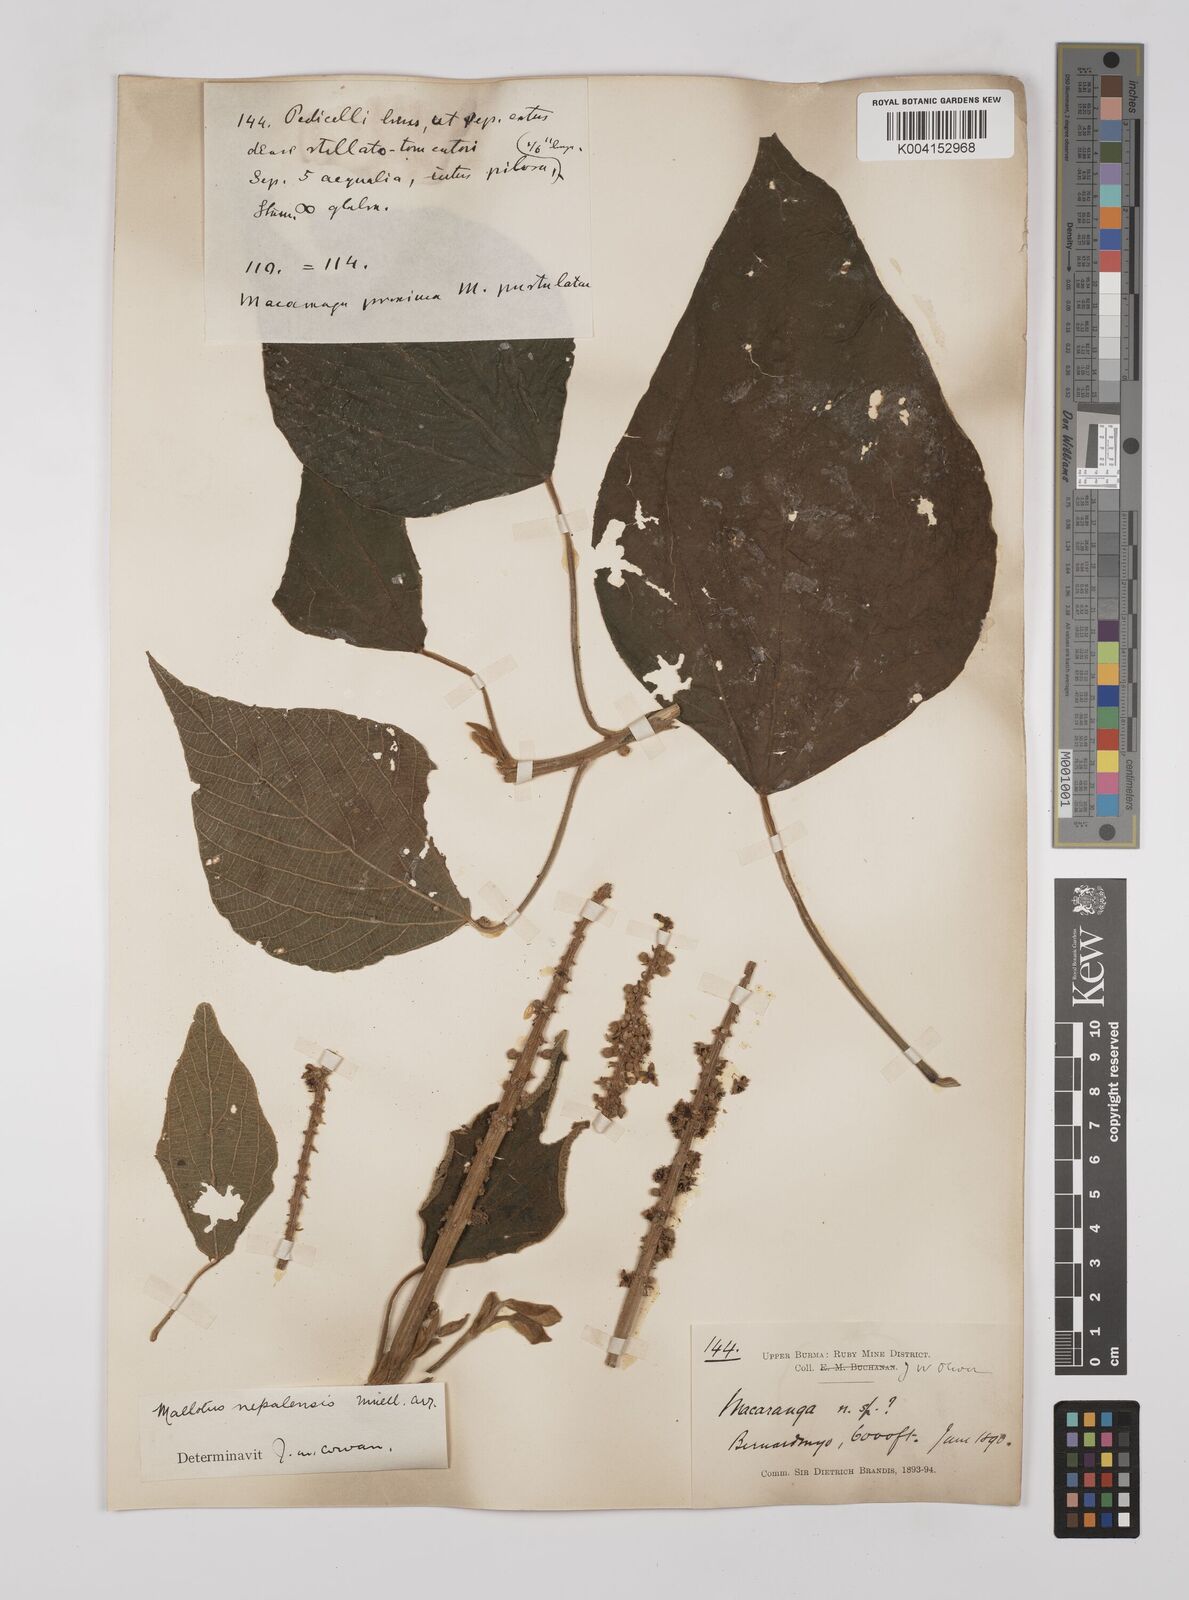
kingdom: Plantae
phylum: Tracheophyta
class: Magnoliopsida
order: Malpighiales
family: Euphorbiaceae
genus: Mallotus
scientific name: Mallotus nepalensis
